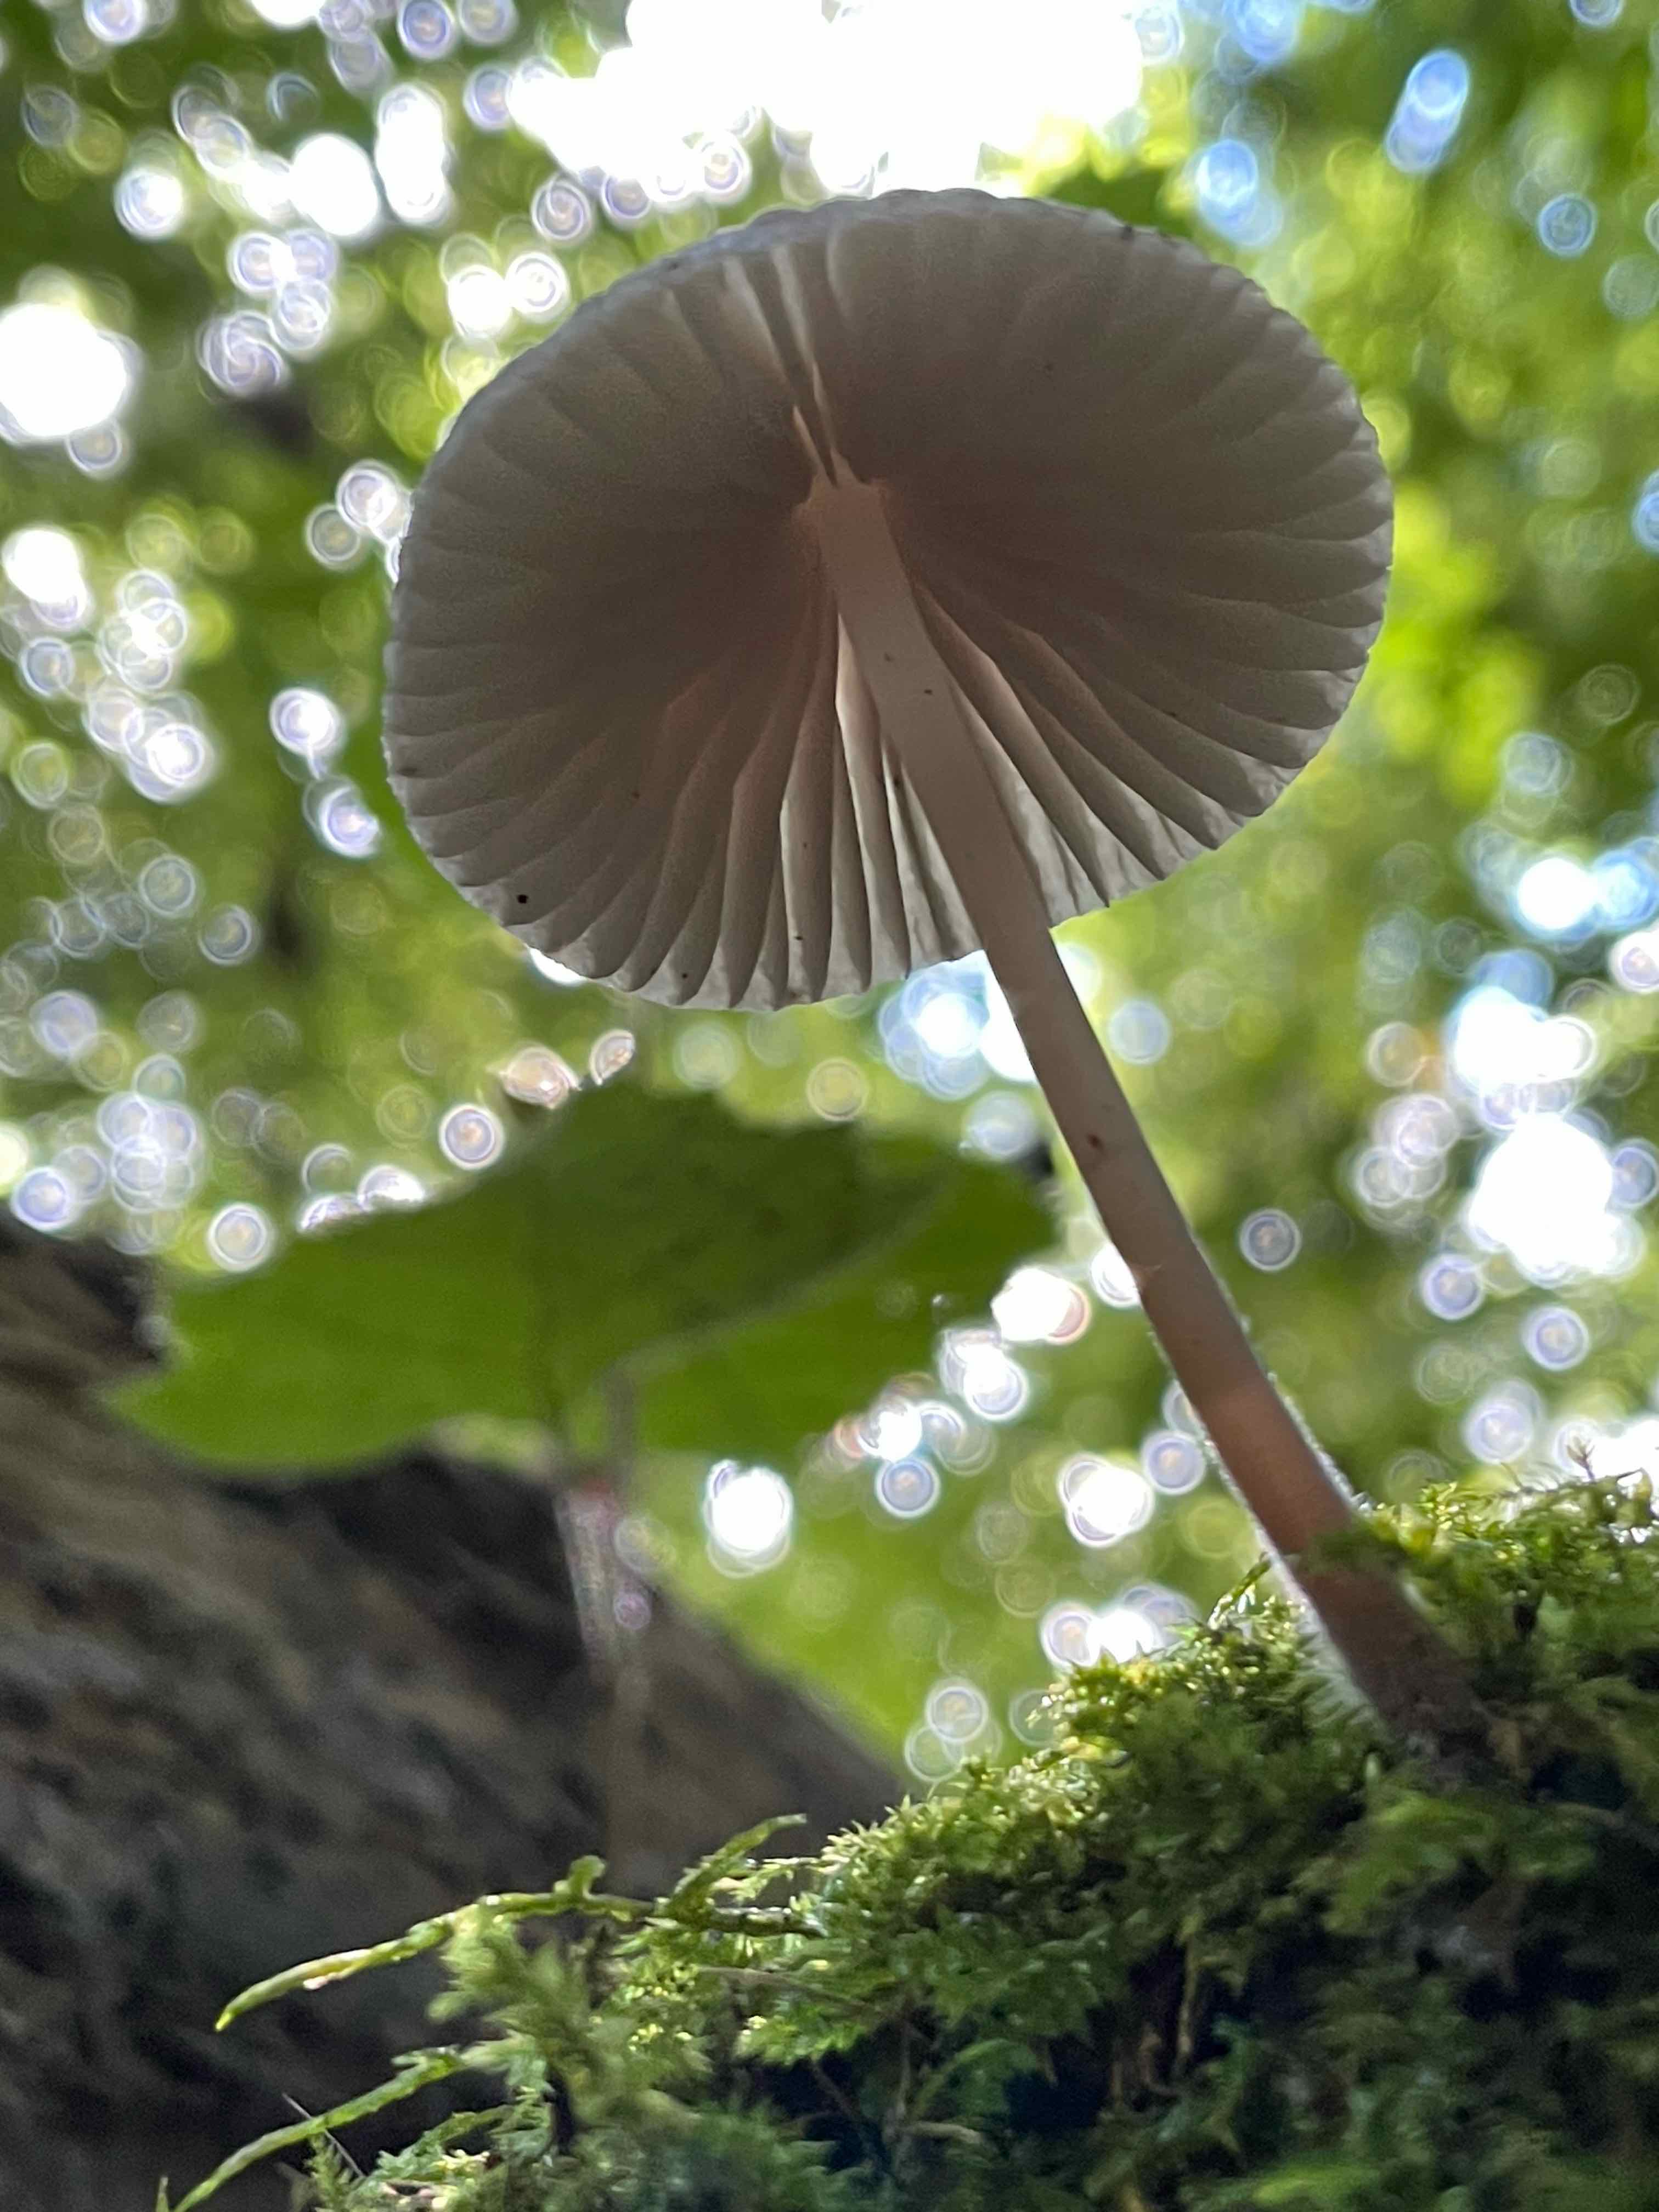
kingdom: Fungi
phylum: Basidiomycota
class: Agaricomycetes
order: Agaricales
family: Mycenaceae
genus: Mycena
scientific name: Mycena
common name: huesvamp
